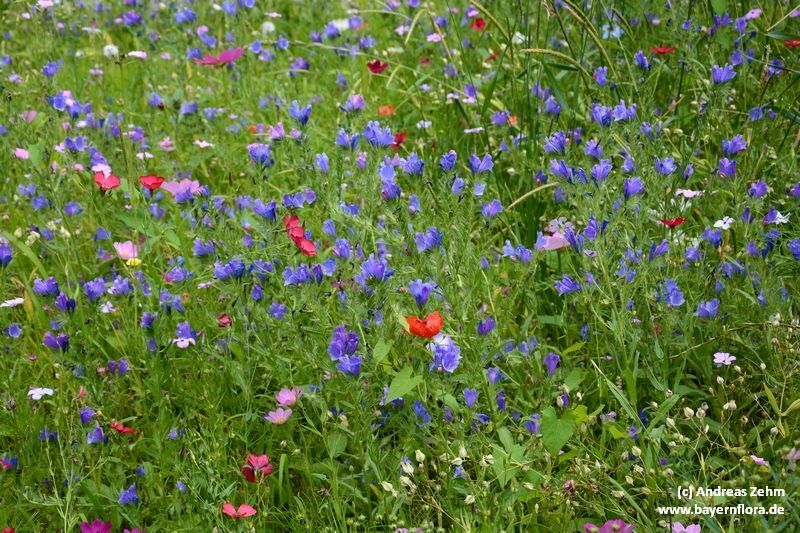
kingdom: Plantae
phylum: Tracheophyta
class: Magnoliopsida
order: Boraginales
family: Boraginaceae
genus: Echium
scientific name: Echium plantagineum
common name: Purple viper's-bugloss
